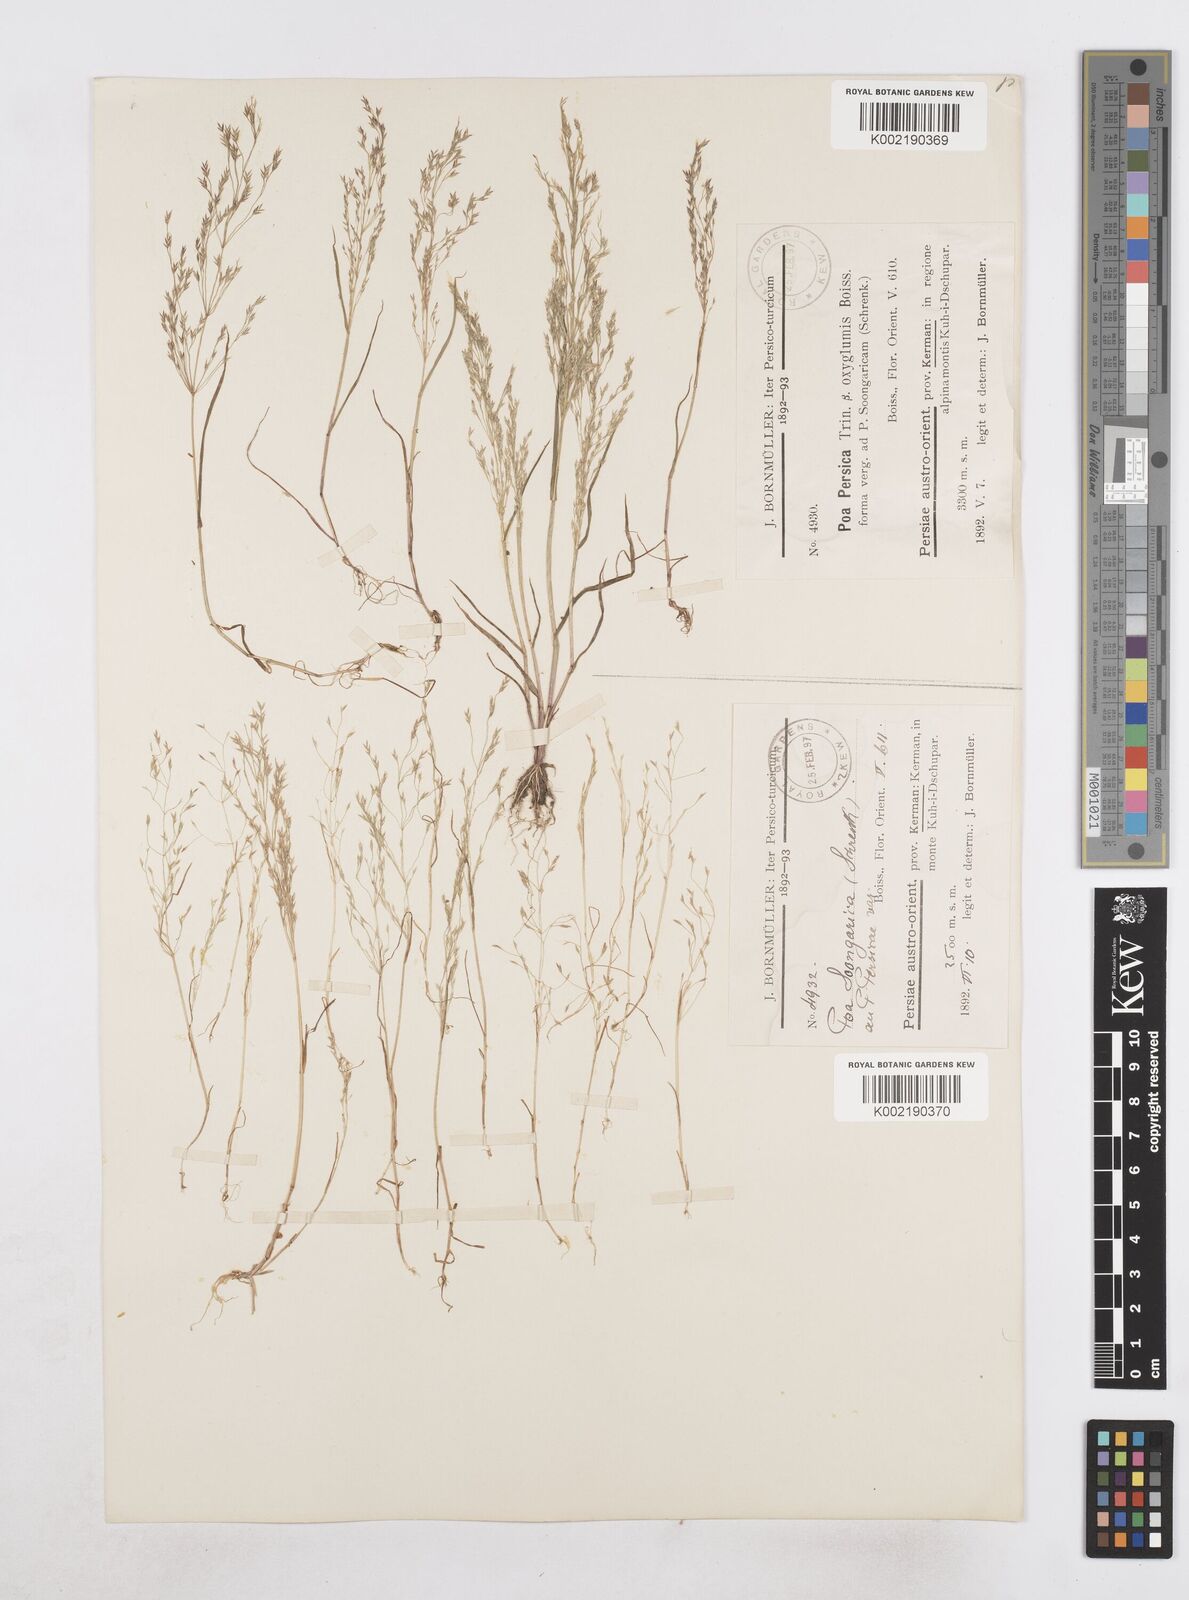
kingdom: Plantae
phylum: Tracheophyta
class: Liliopsida
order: Poales
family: Poaceae
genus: Poa
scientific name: Poa persica
